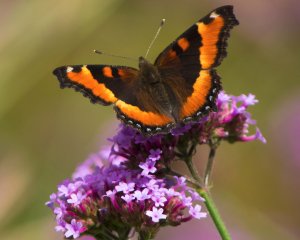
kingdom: Animalia
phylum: Arthropoda
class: Insecta
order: Lepidoptera
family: Nymphalidae
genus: Aglais
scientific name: Aglais milberti
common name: Milbert's Tortoiseshell
